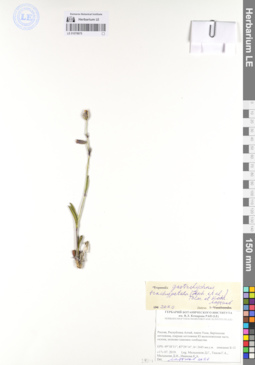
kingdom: Plantae
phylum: Tracheophyta
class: Magnoliopsida
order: Caryophyllales
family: Caryophyllaceae
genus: Silene
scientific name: Silene songarica
